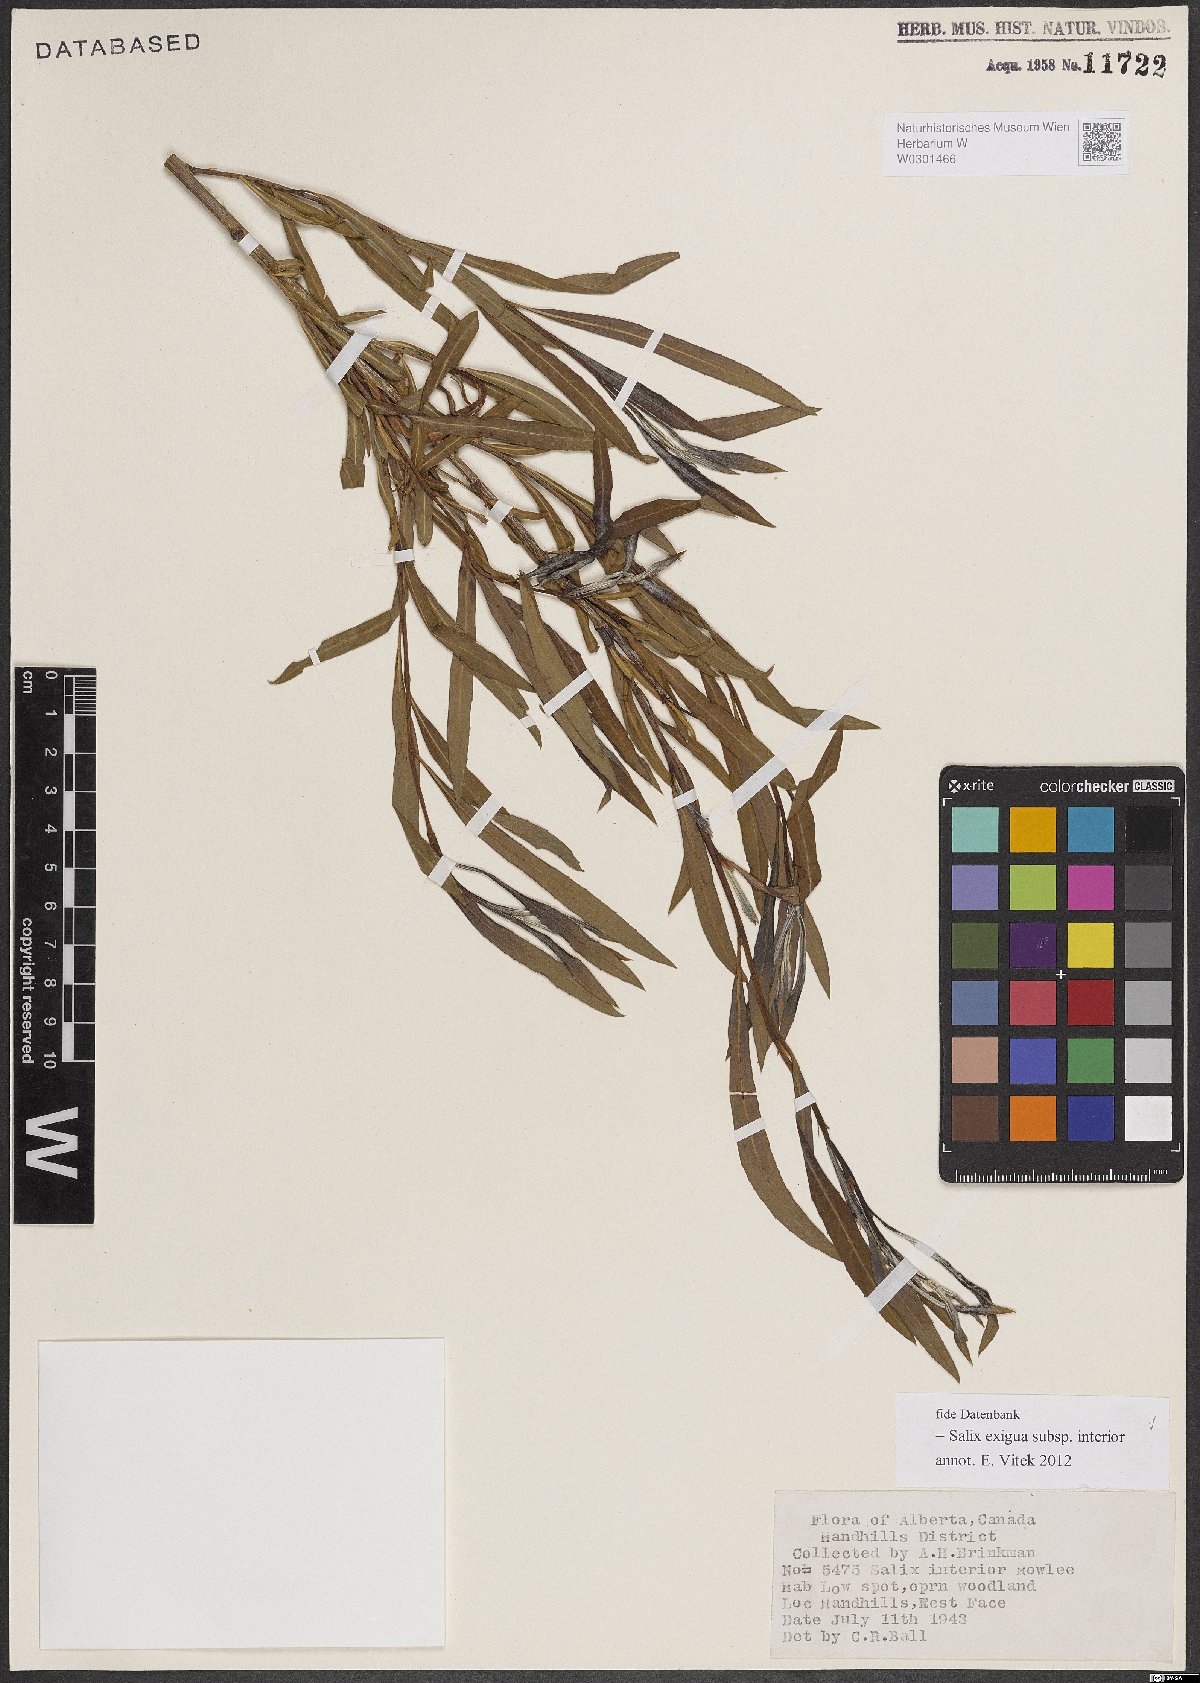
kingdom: Plantae
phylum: Tracheophyta
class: Magnoliopsida
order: Malpighiales
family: Salicaceae
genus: Salix
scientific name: Salix interior
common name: Sandbar willow
